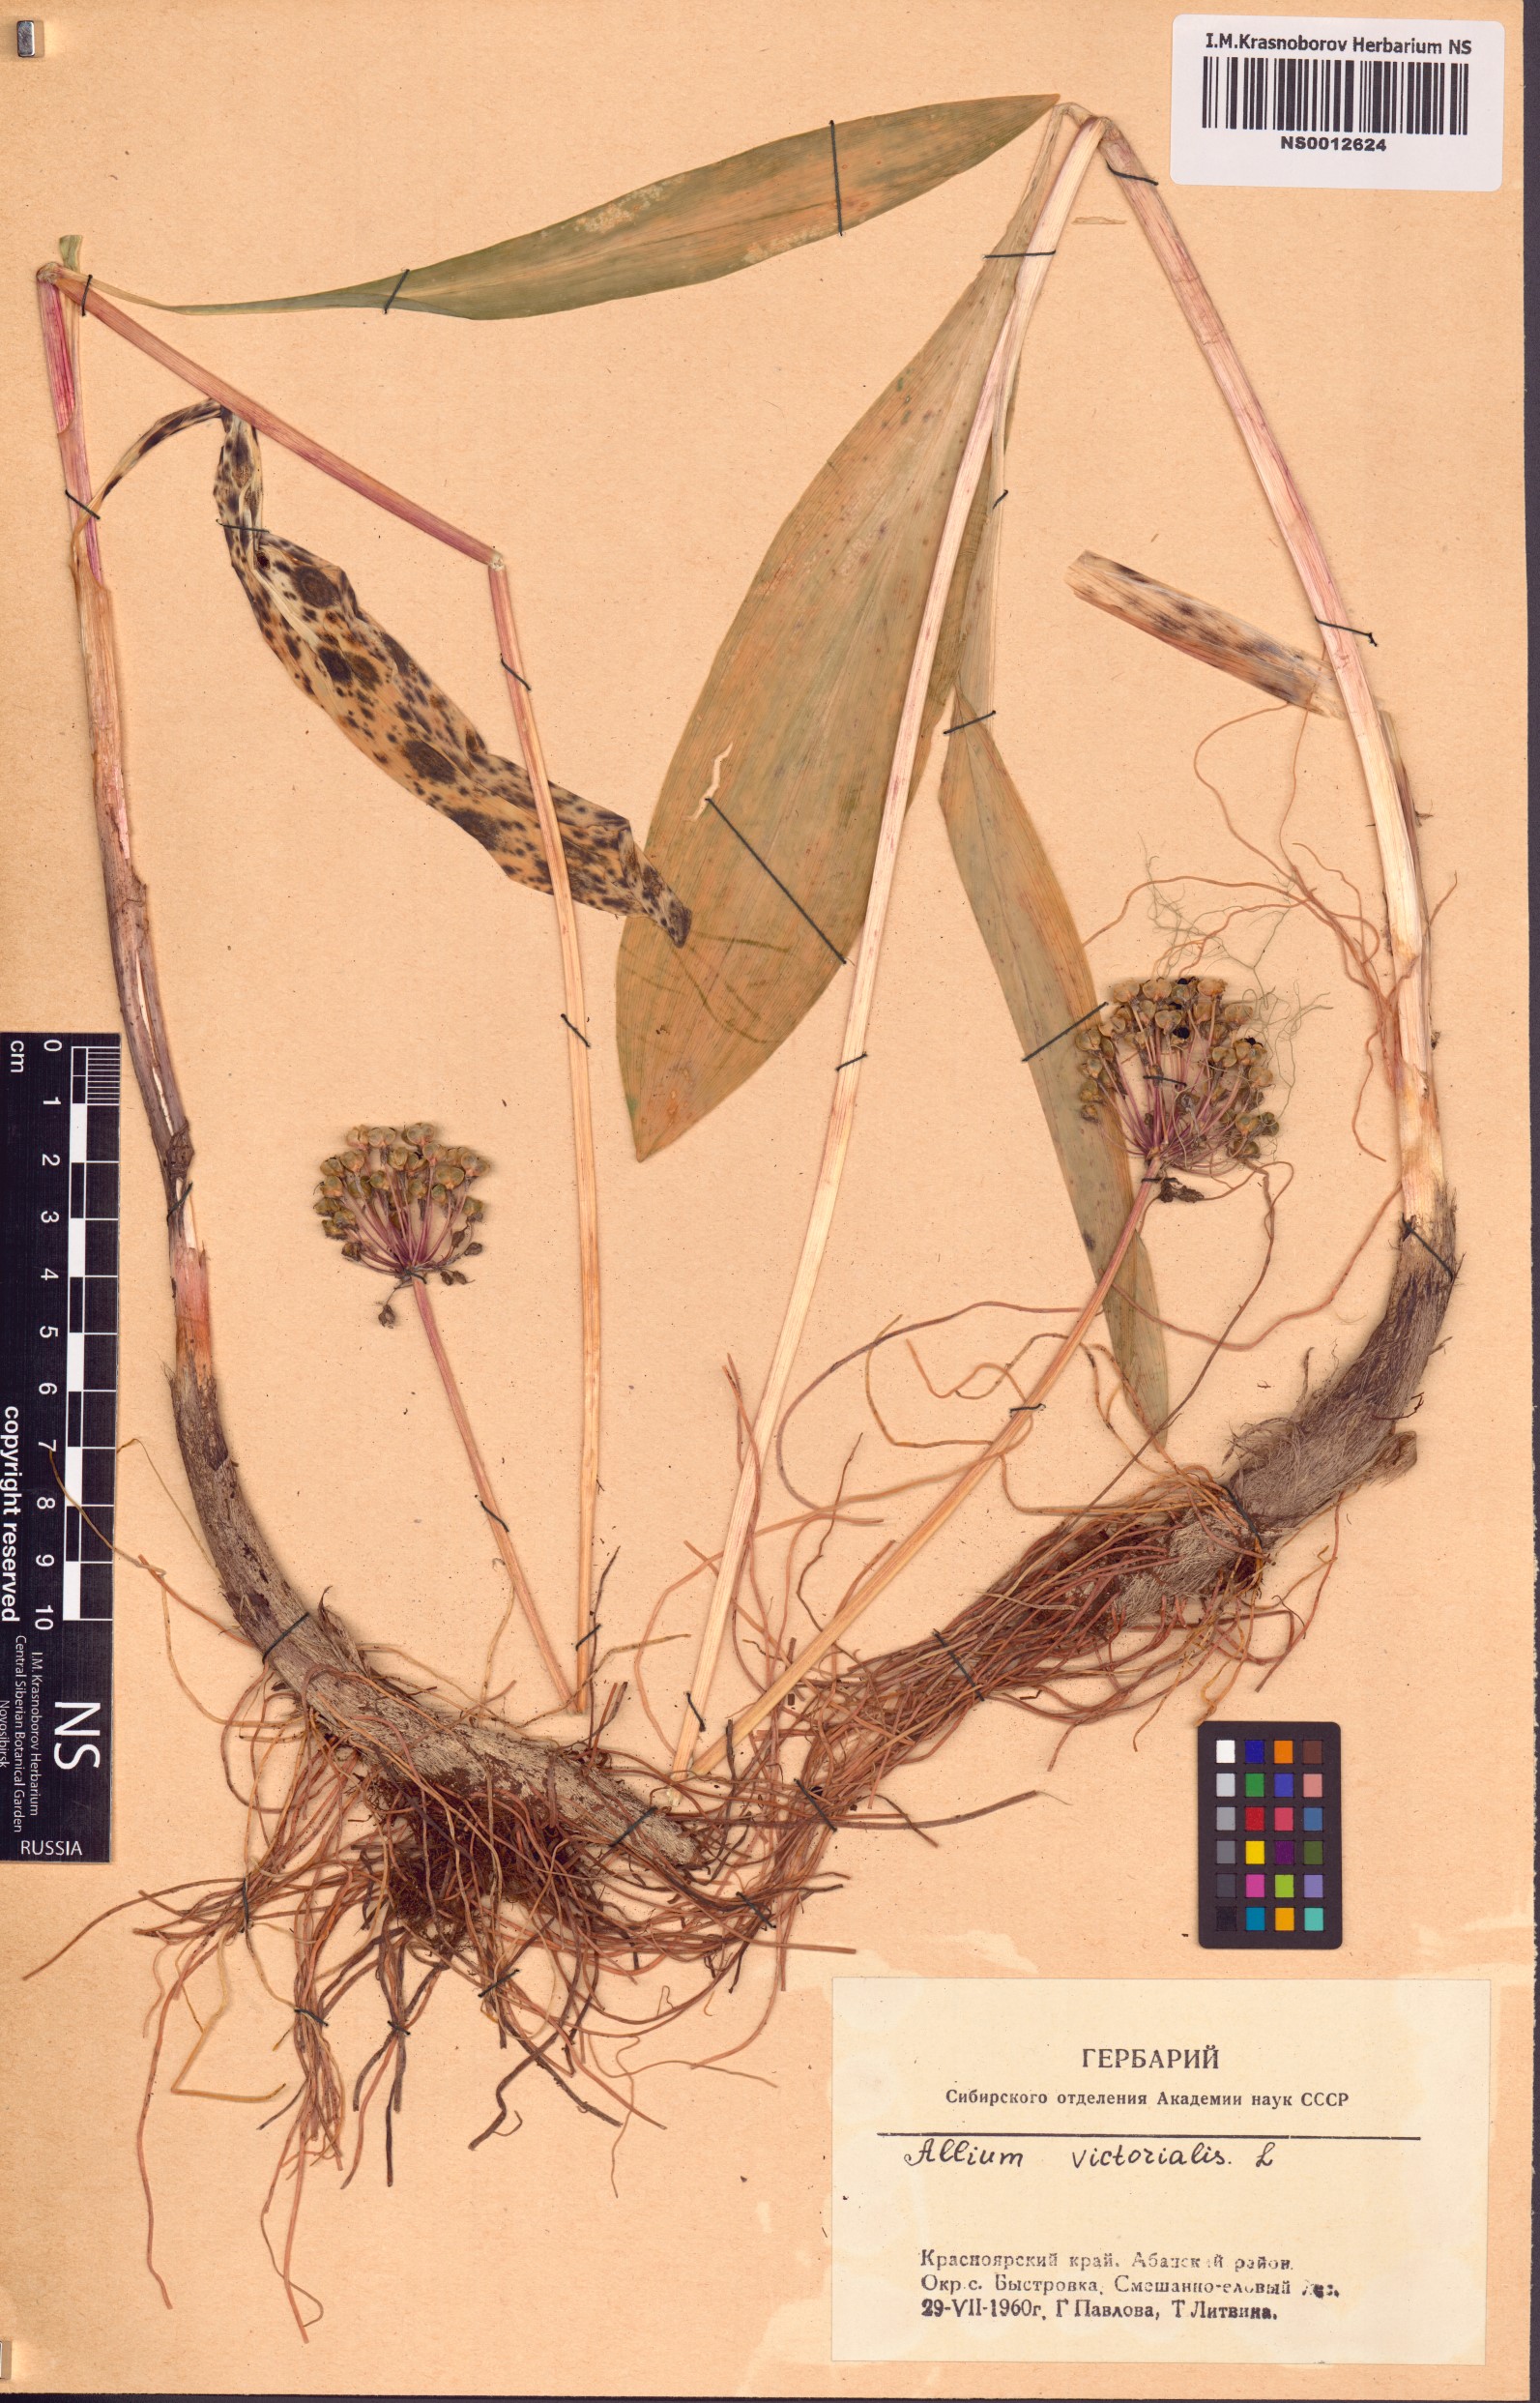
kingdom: Plantae
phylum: Tracheophyta
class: Liliopsida
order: Asparagales
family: Amaryllidaceae
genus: Allium
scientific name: Allium microdictyon
